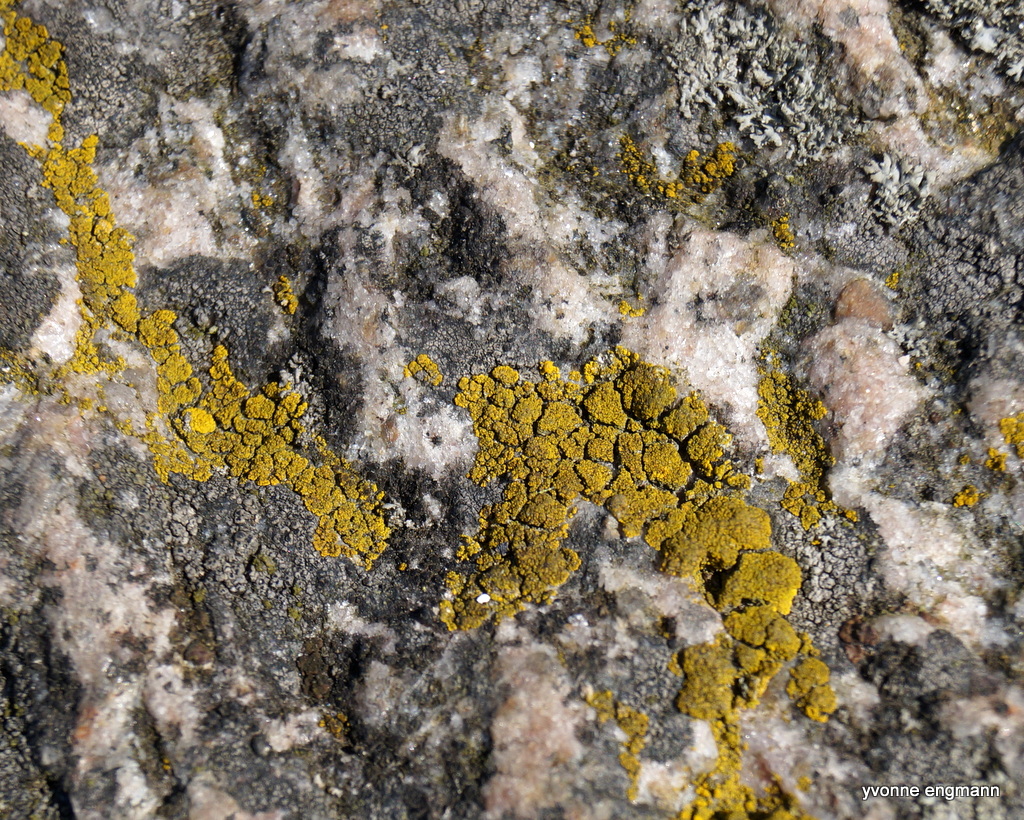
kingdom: Fungi
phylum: Ascomycota
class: Candelariomycetes
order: Candelariales
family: Candelariaceae
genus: Candelariella
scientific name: Candelariella vitellina
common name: almindelig æggeblommelav
